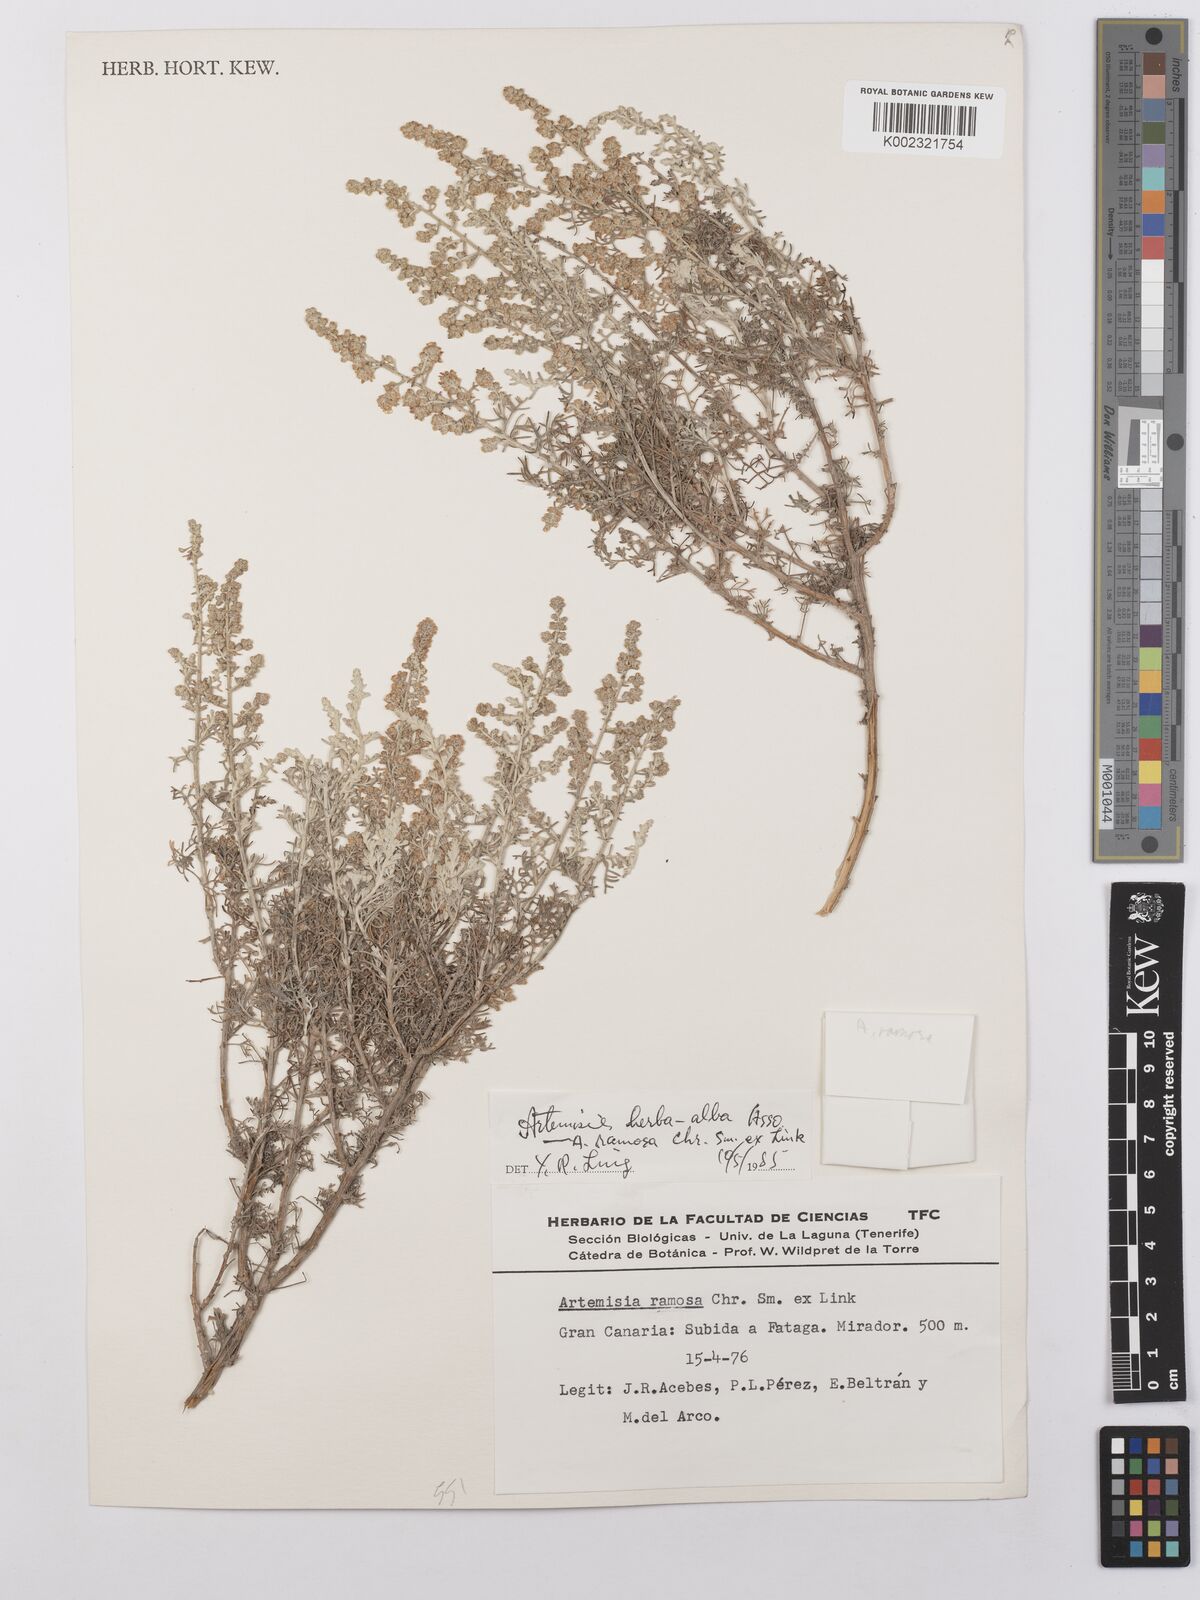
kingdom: Plantae
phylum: Tracheophyta
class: Magnoliopsida
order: Asterales
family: Asteraceae
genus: Artemisia
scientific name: Artemisia herba-alba
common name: White wormwood
